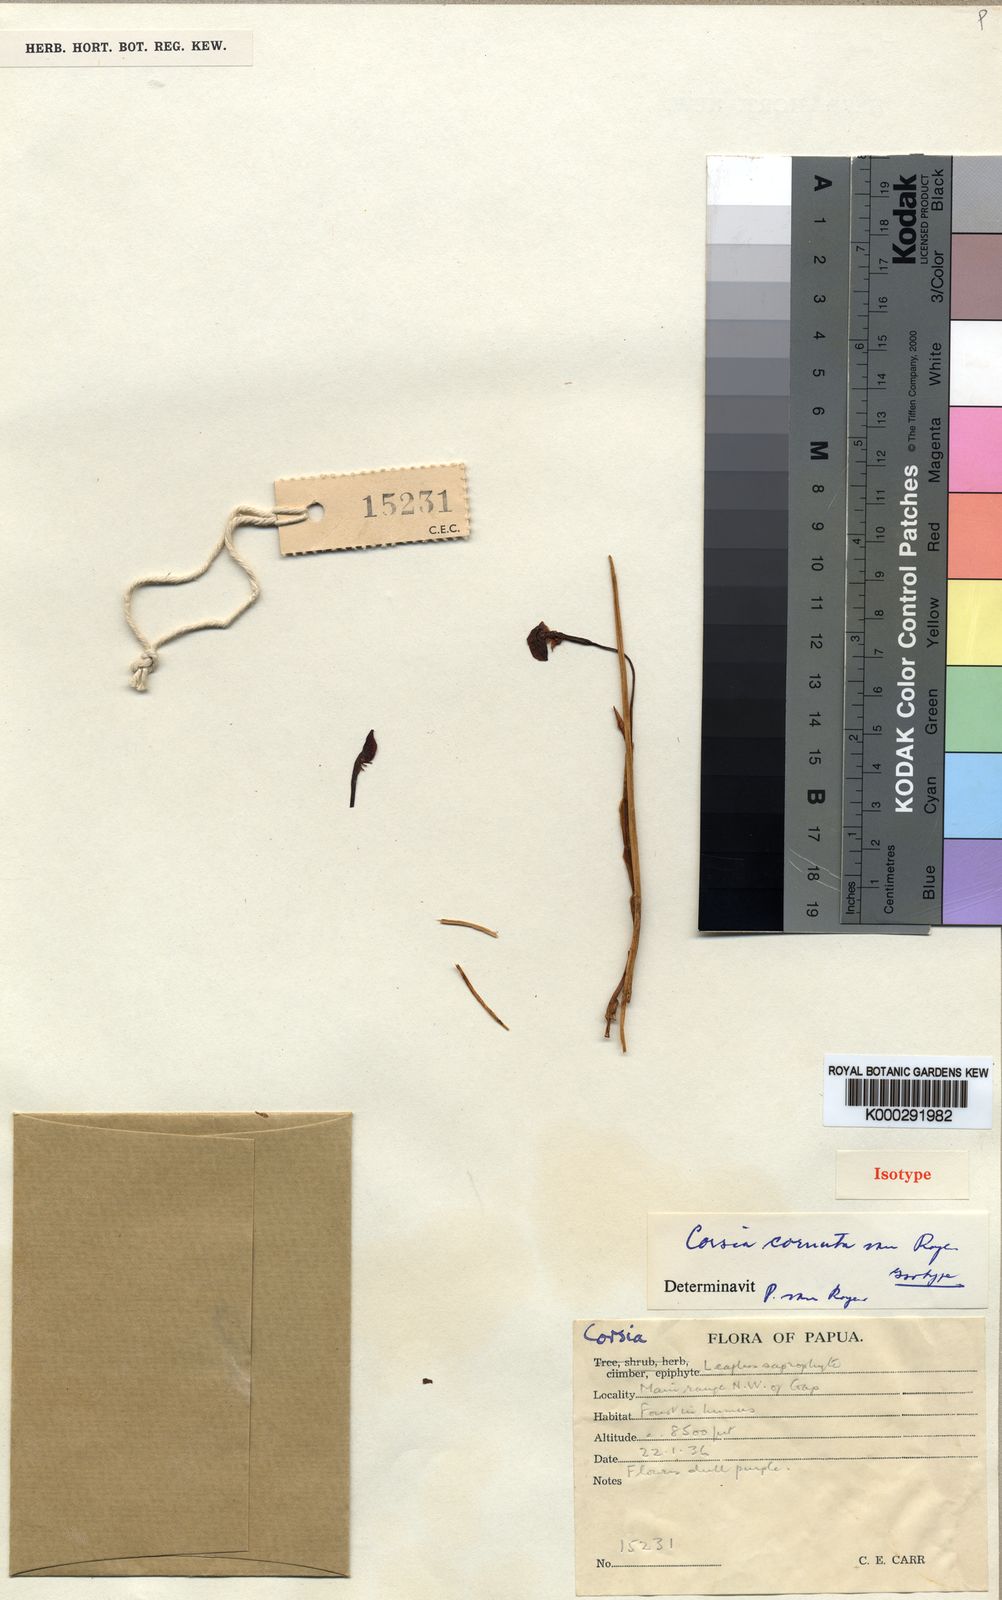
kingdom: Plantae
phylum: Tracheophyta
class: Liliopsida
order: Liliales
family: Corsiaceae
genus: Corsia
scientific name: Corsia cornuta
